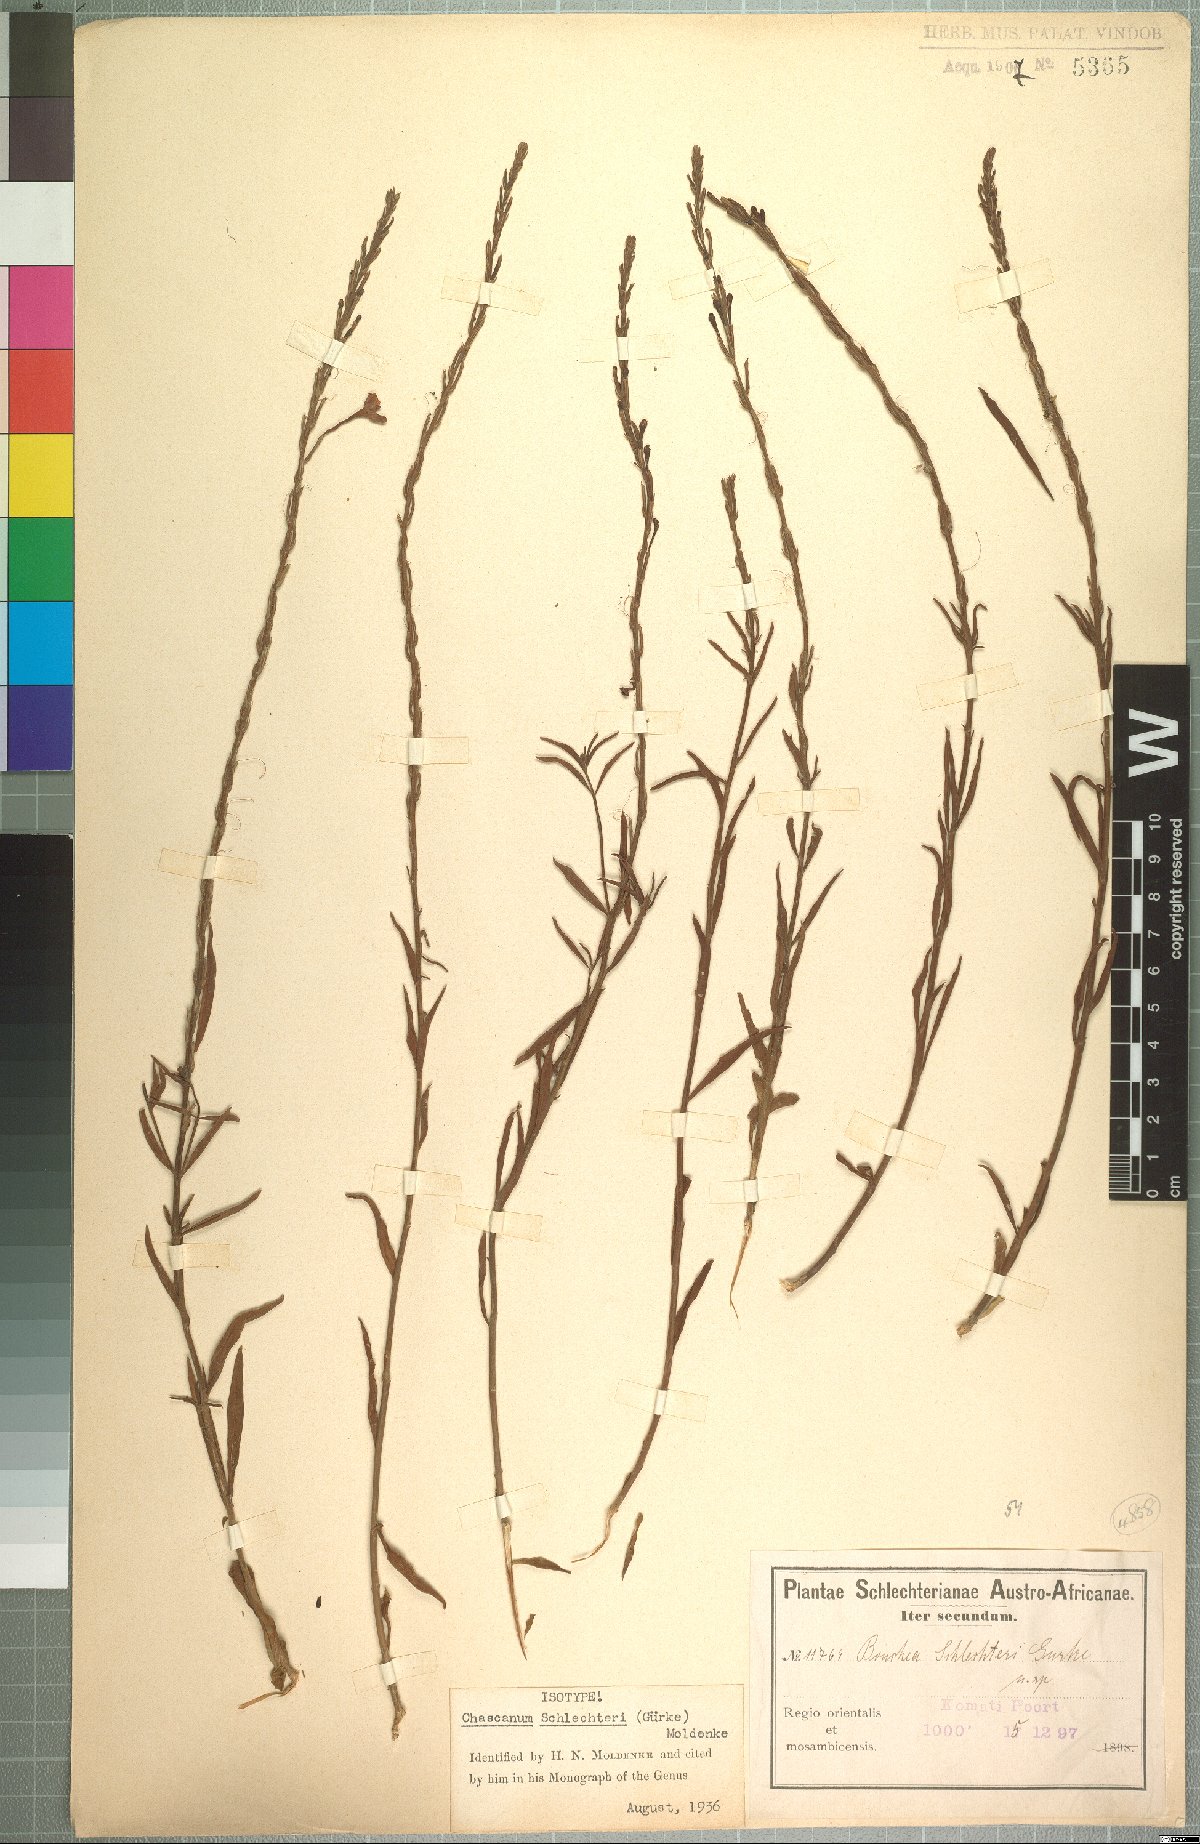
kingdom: Plantae
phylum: Tracheophyta
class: Magnoliopsida
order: Lamiales
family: Verbenaceae
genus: Chascanum
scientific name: Chascanum schlechteri
